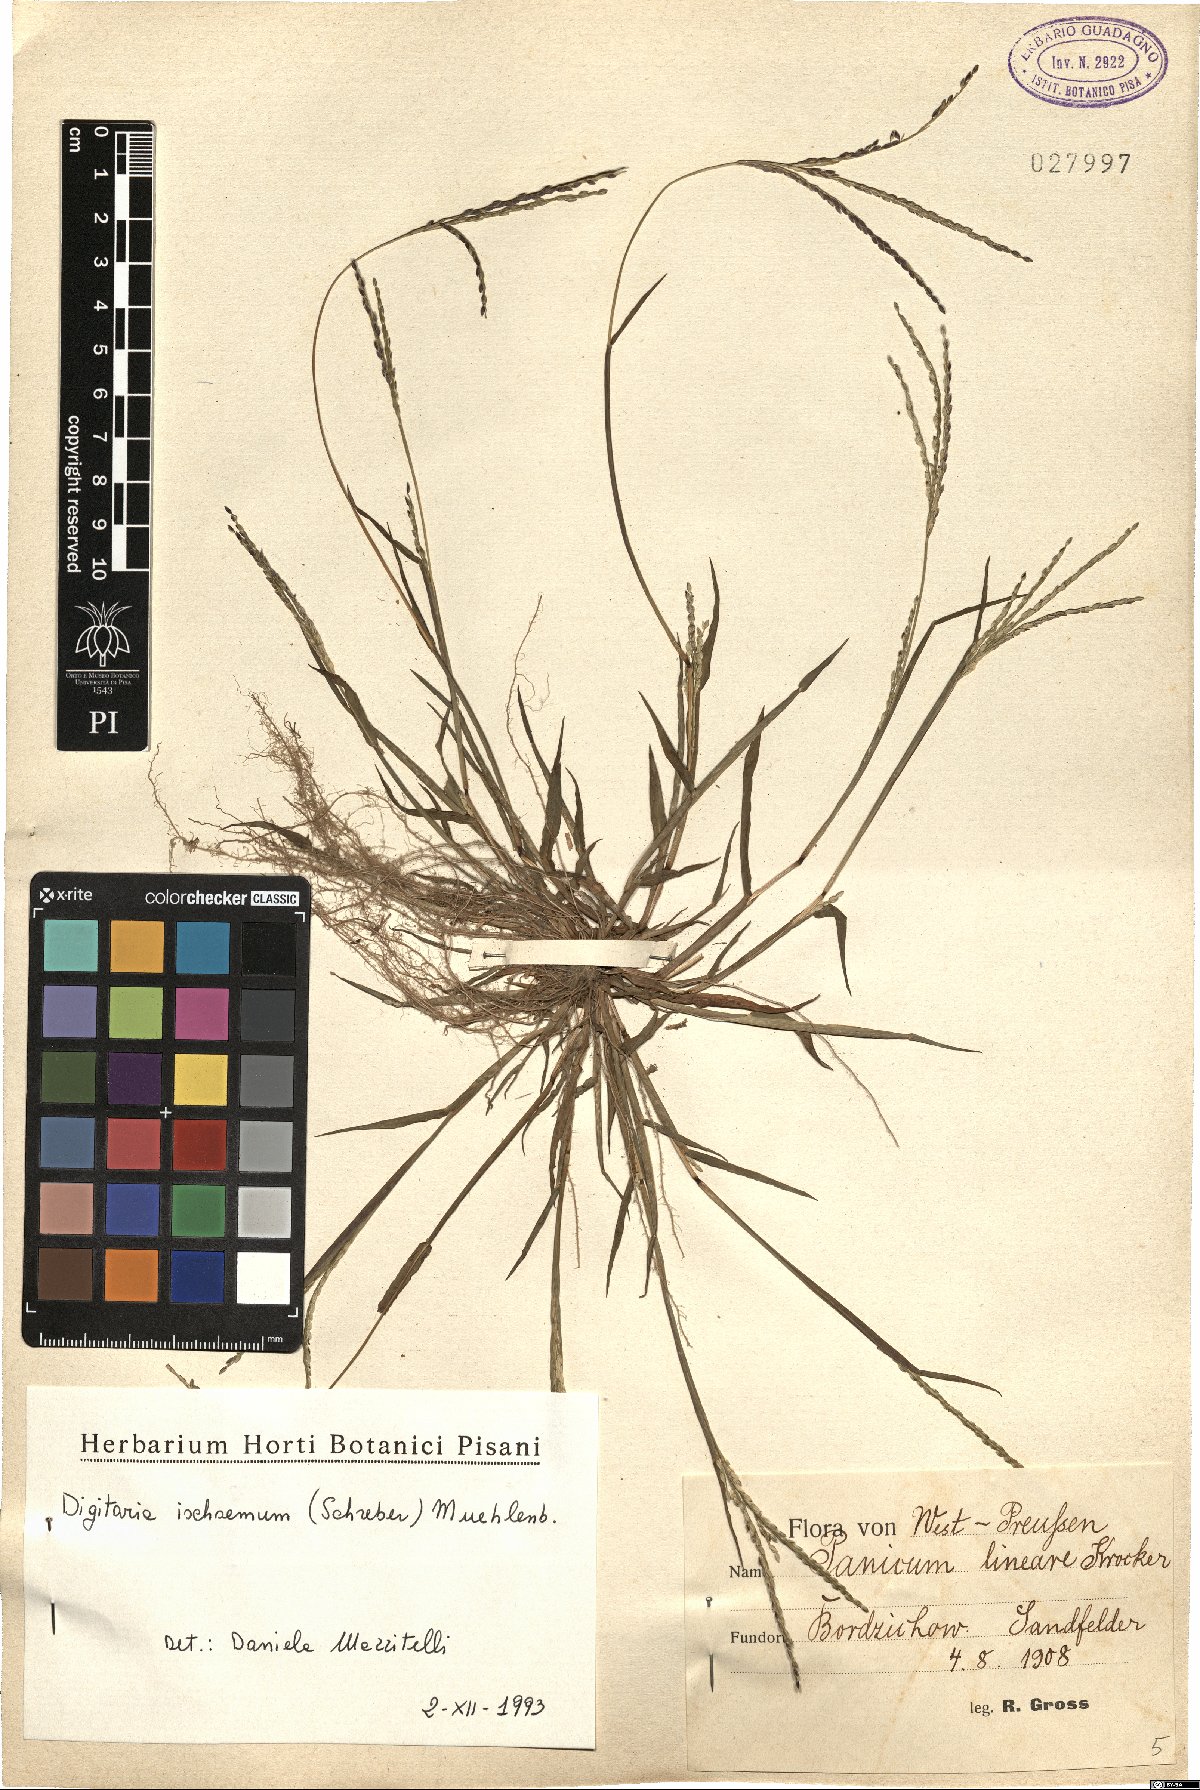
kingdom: Plantae
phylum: Tracheophyta
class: Liliopsida
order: Poales
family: Poaceae
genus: Digitaria
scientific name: Digitaria ischaemum
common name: Smooth crabgrass
